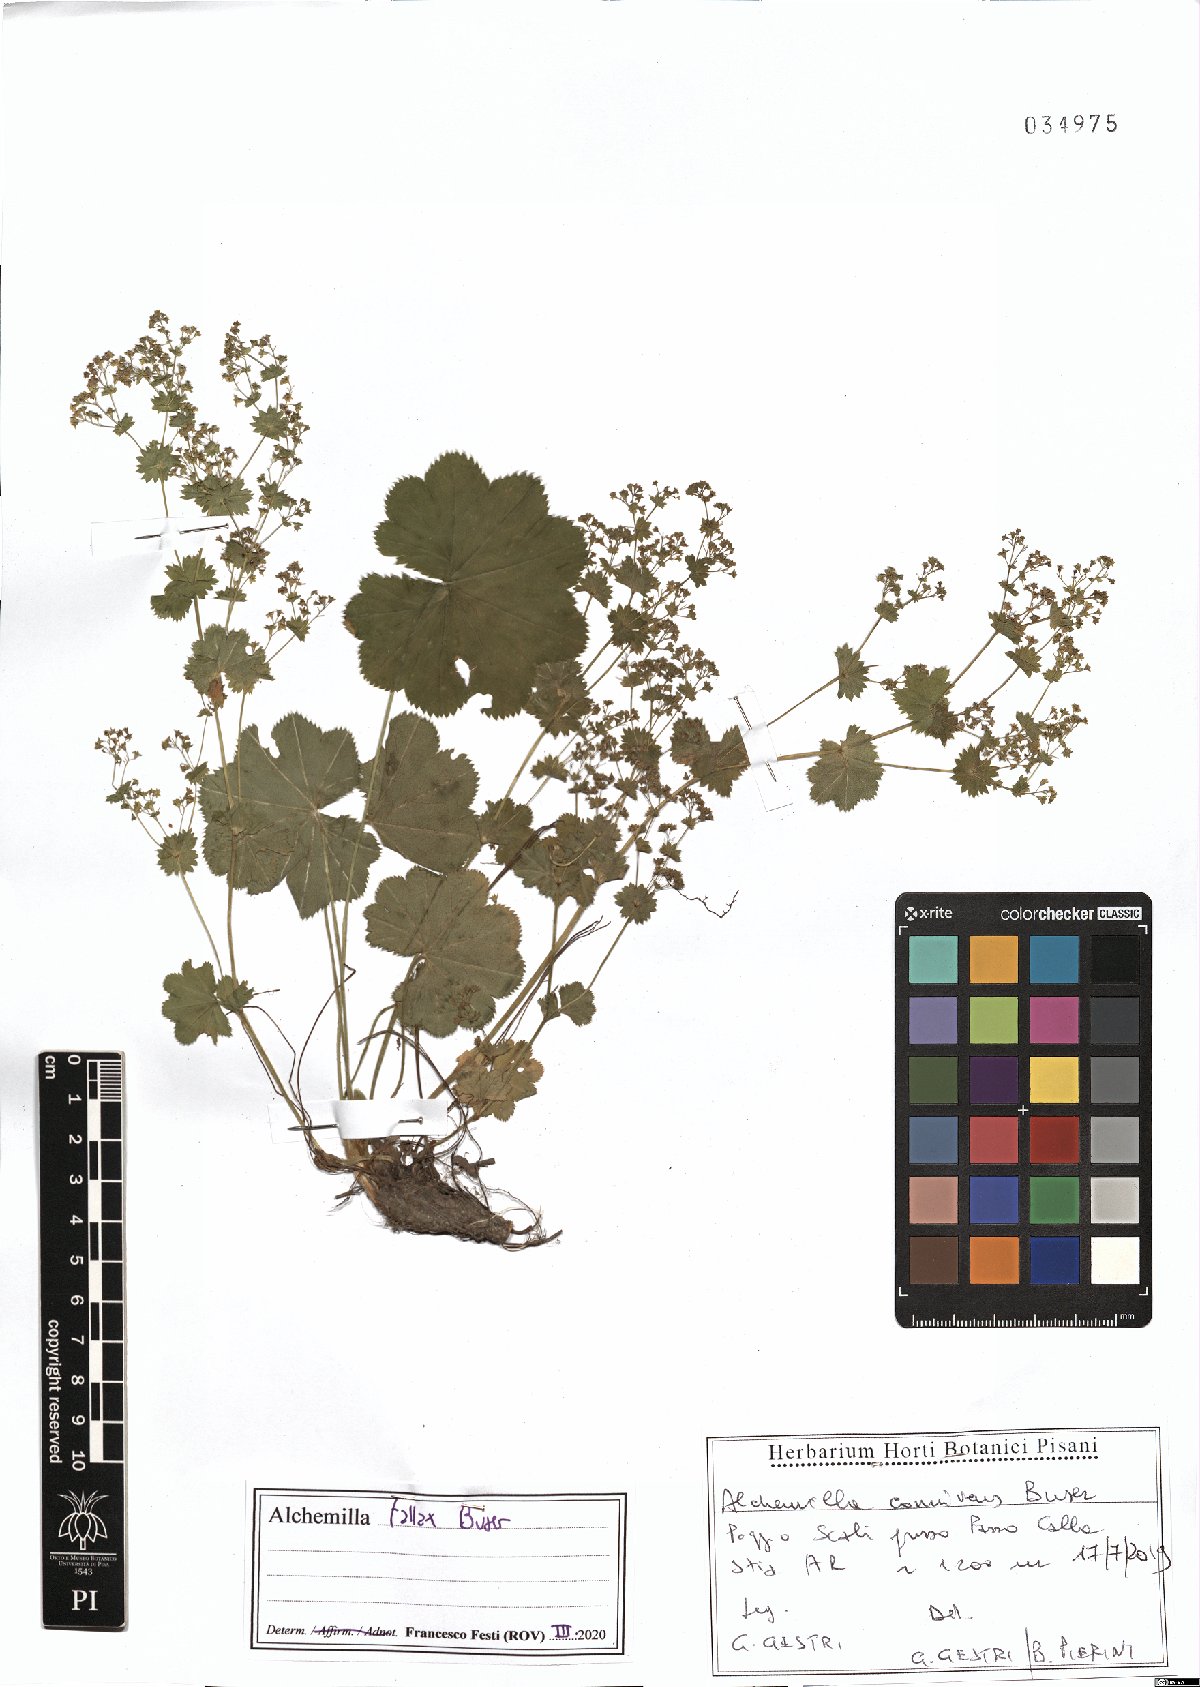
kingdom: Plantae
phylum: Tracheophyta
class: Magnoliopsida
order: Rosales
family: Rosaceae
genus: Alchemilla
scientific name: Alchemilla fallax
